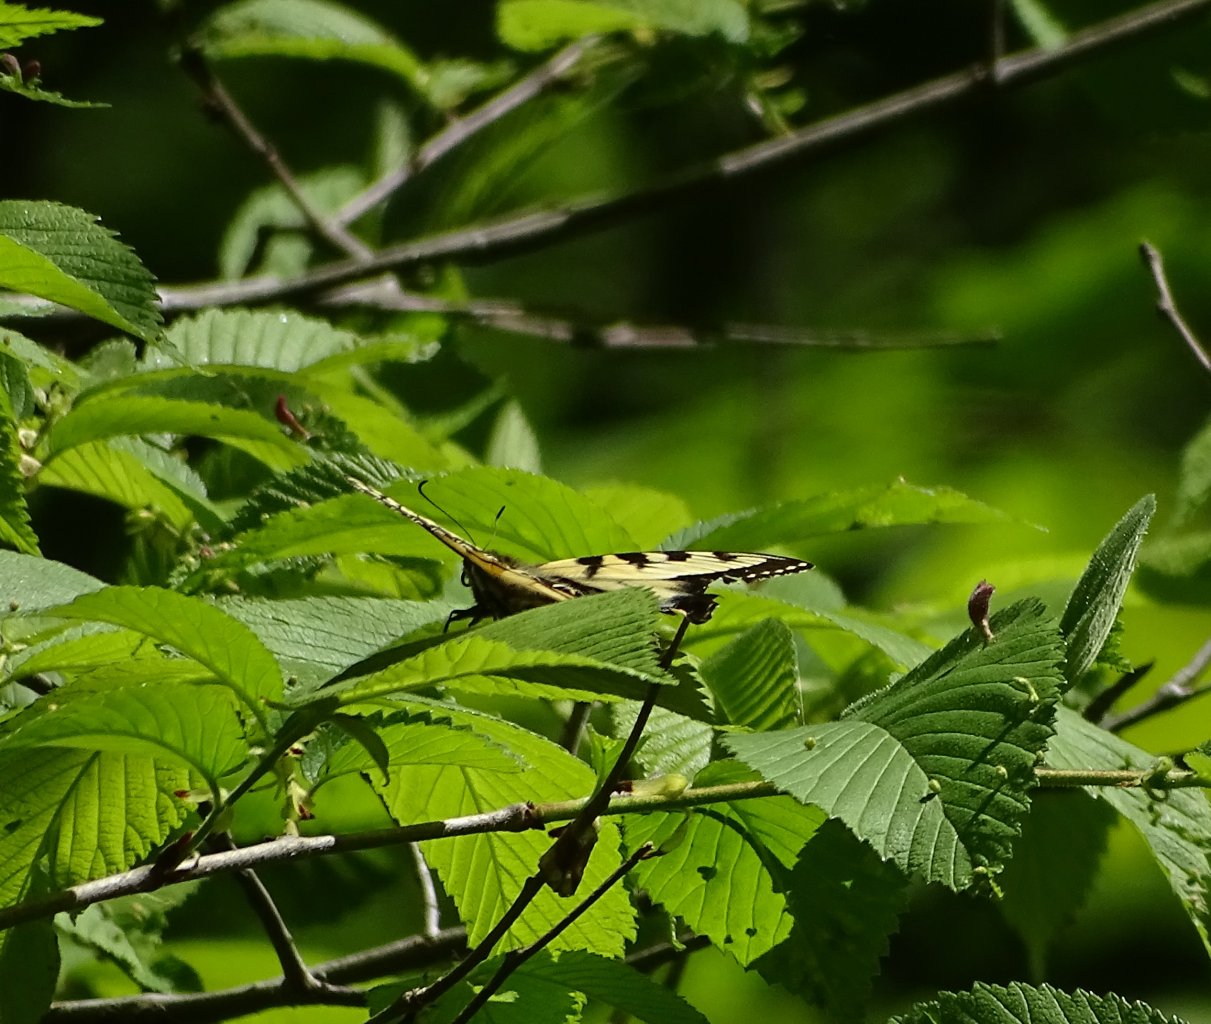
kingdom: Animalia
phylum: Arthropoda
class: Insecta
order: Lepidoptera
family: Papilionidae
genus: Pterourus
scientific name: Pterourus glaucus
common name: Eastern Tiger Swallowtail
